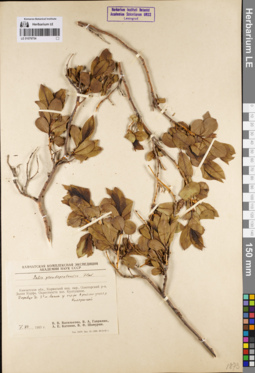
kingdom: Plantae
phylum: Tracheophyta
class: Magnoliopsida
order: Malpighiales
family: Salicaceae
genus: Salix
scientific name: Salix pseudopentandra
